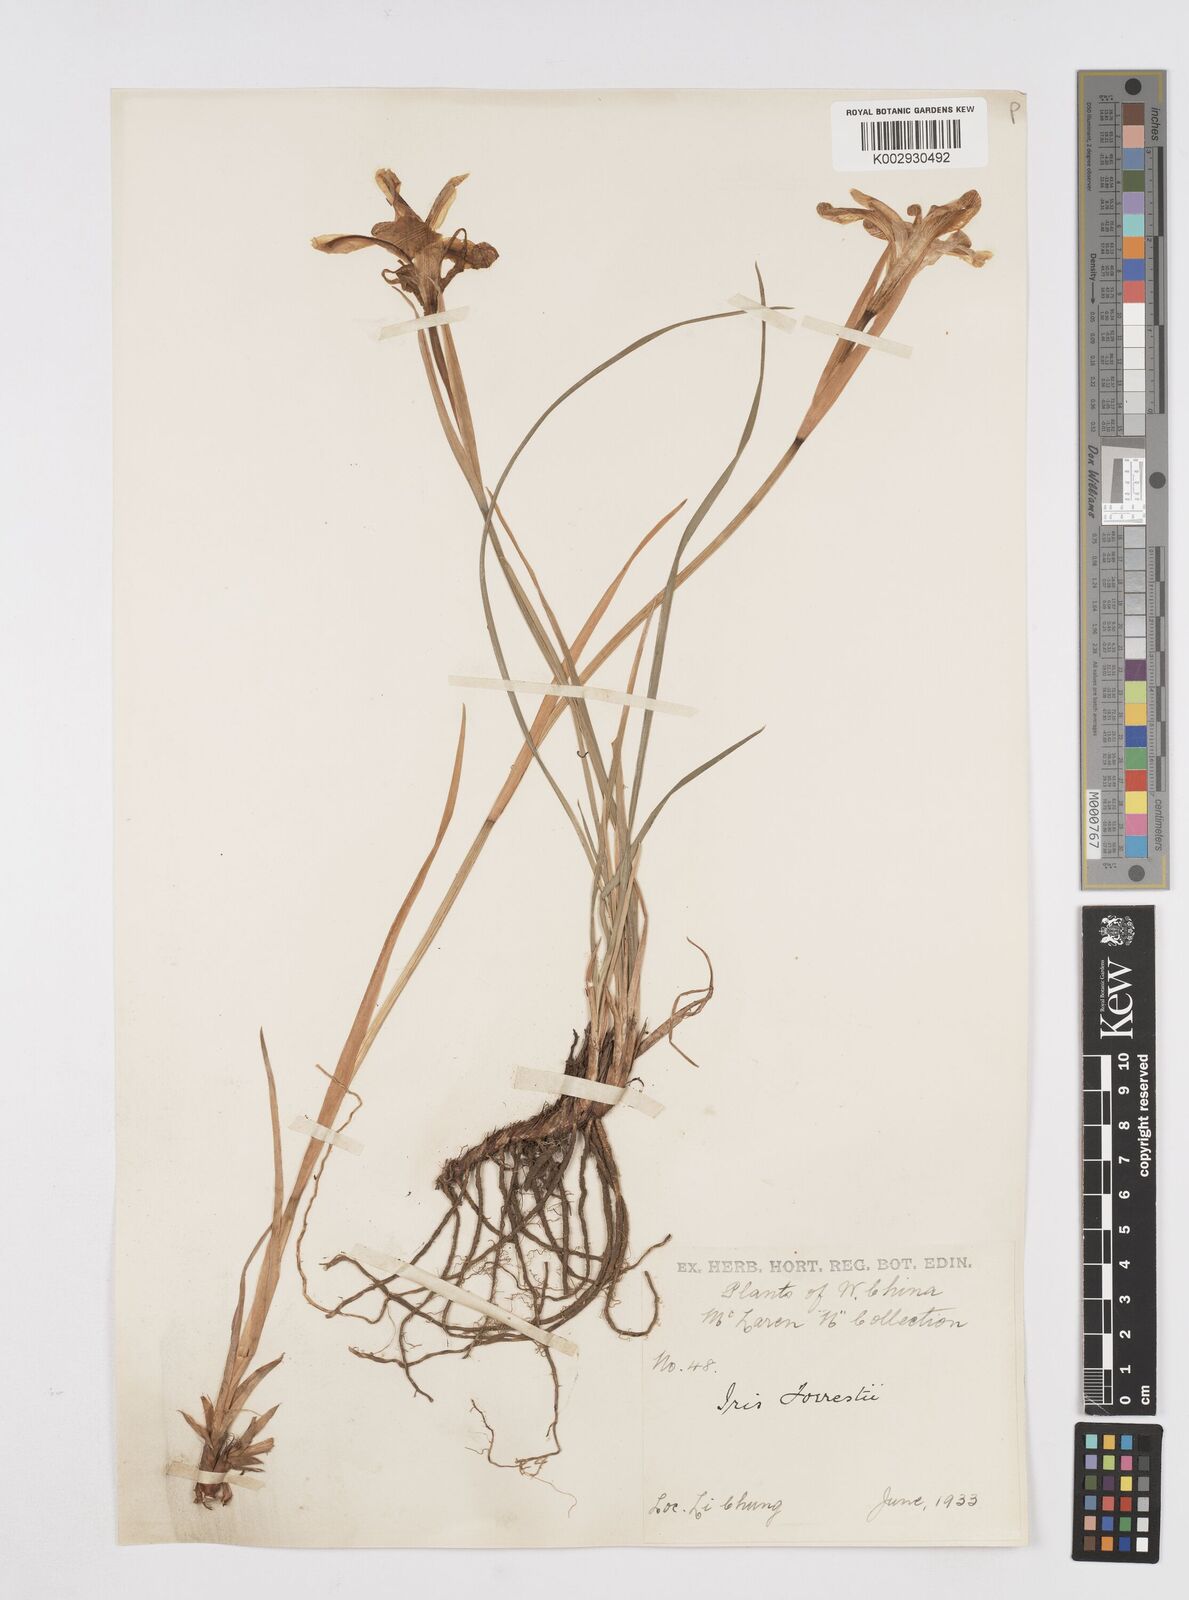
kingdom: Plantae
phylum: Tracheophyta
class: Liliopsida
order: Asparagales
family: Iridaceae
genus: Iris
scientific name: Iris forrestii
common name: Yunnan iris
